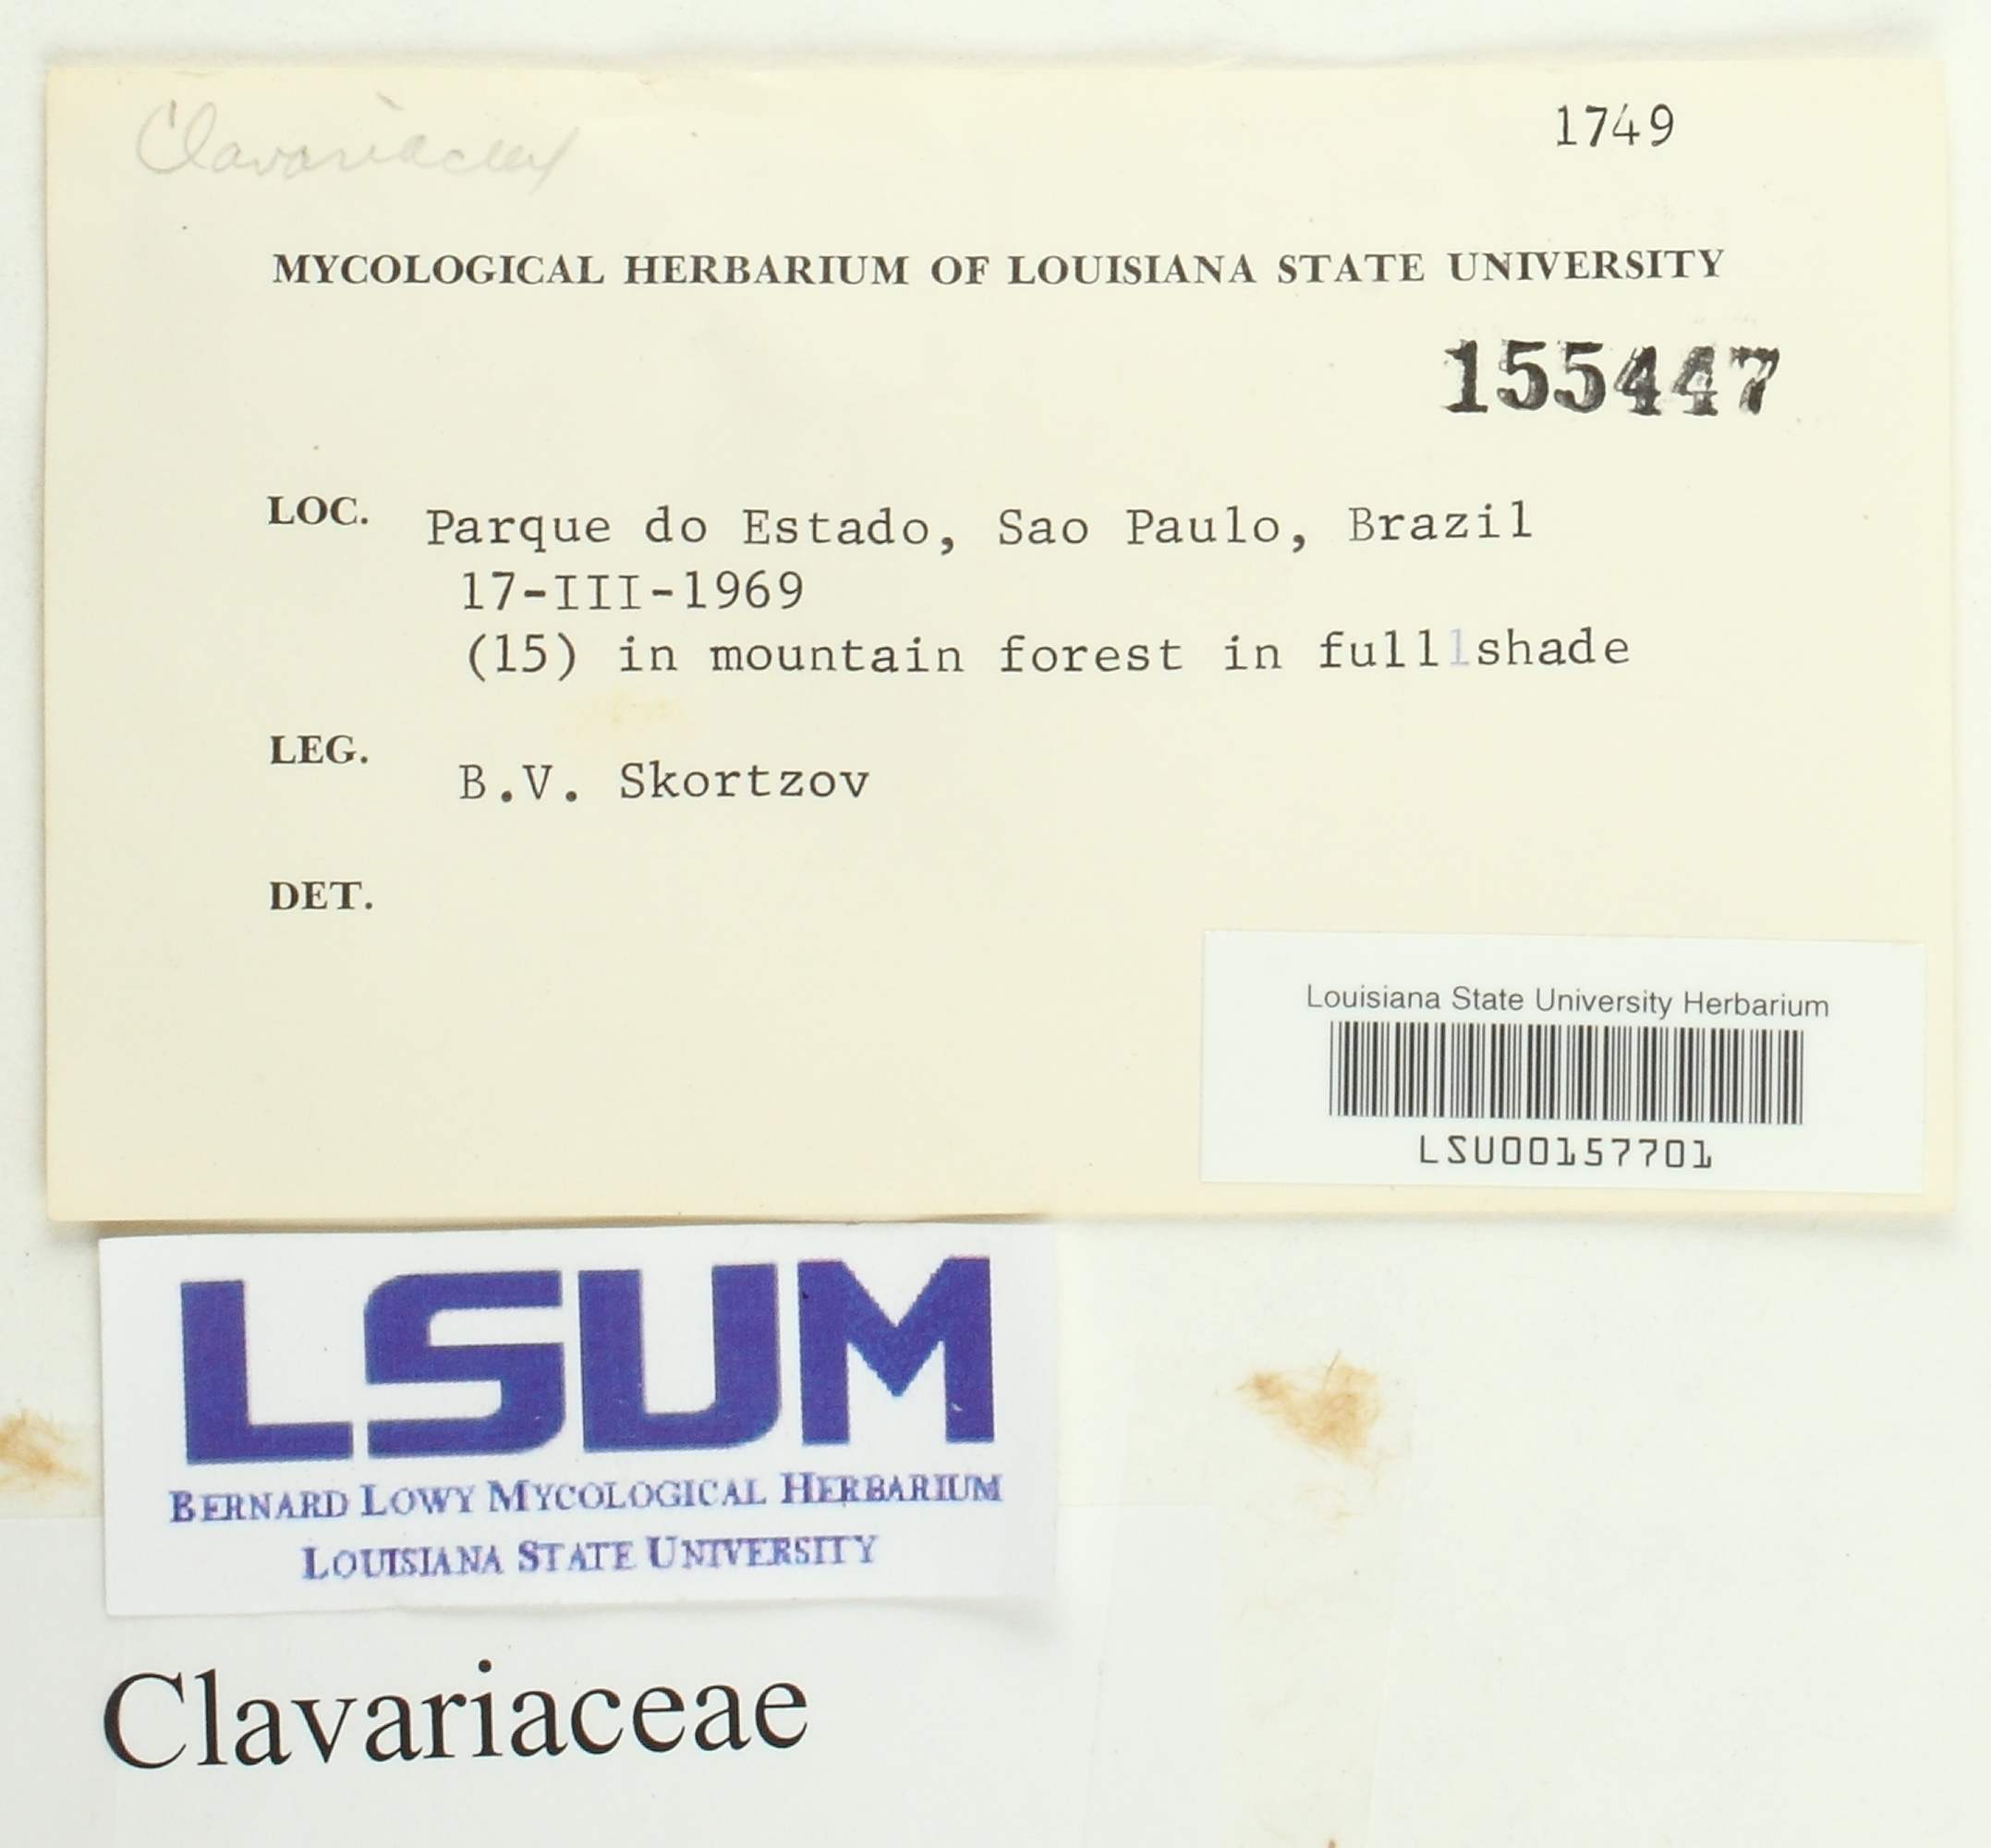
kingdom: Fungi
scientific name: Fungi
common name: Fungi
